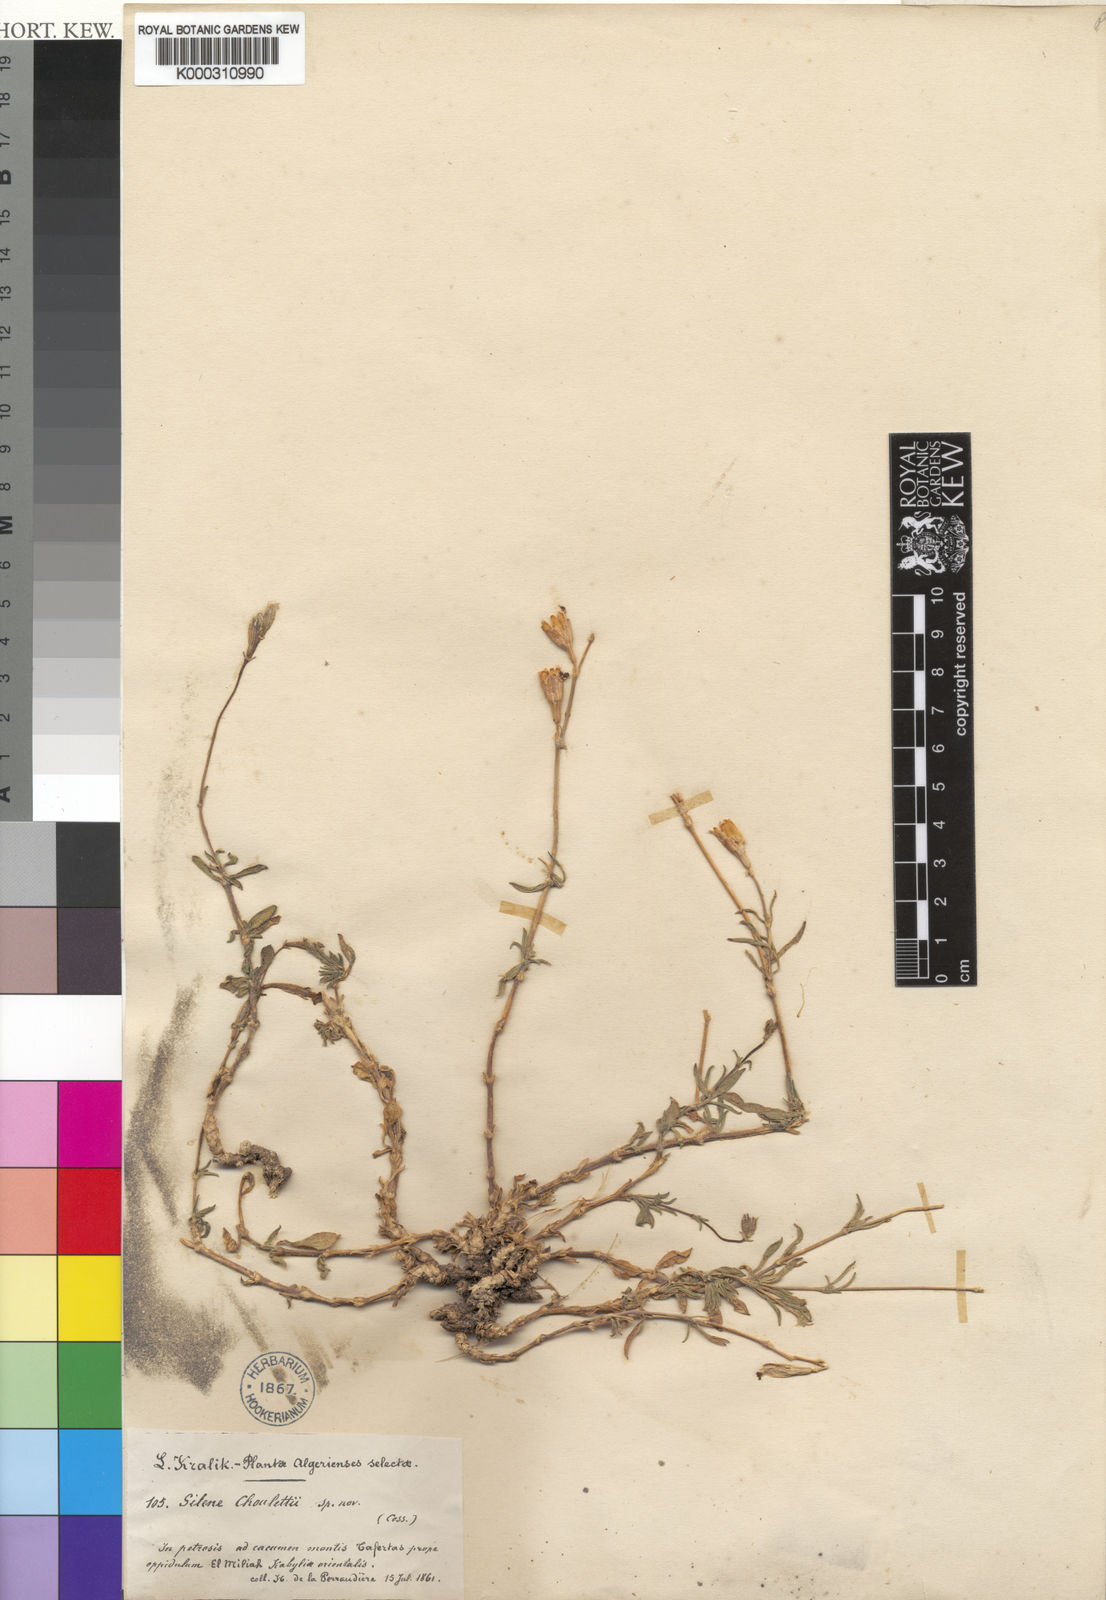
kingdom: Plantae
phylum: Tracheophyta
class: Magnoliopsida
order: Caryophyllales
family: Caryophyllaceae
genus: Silene
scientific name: Silene choulettii
